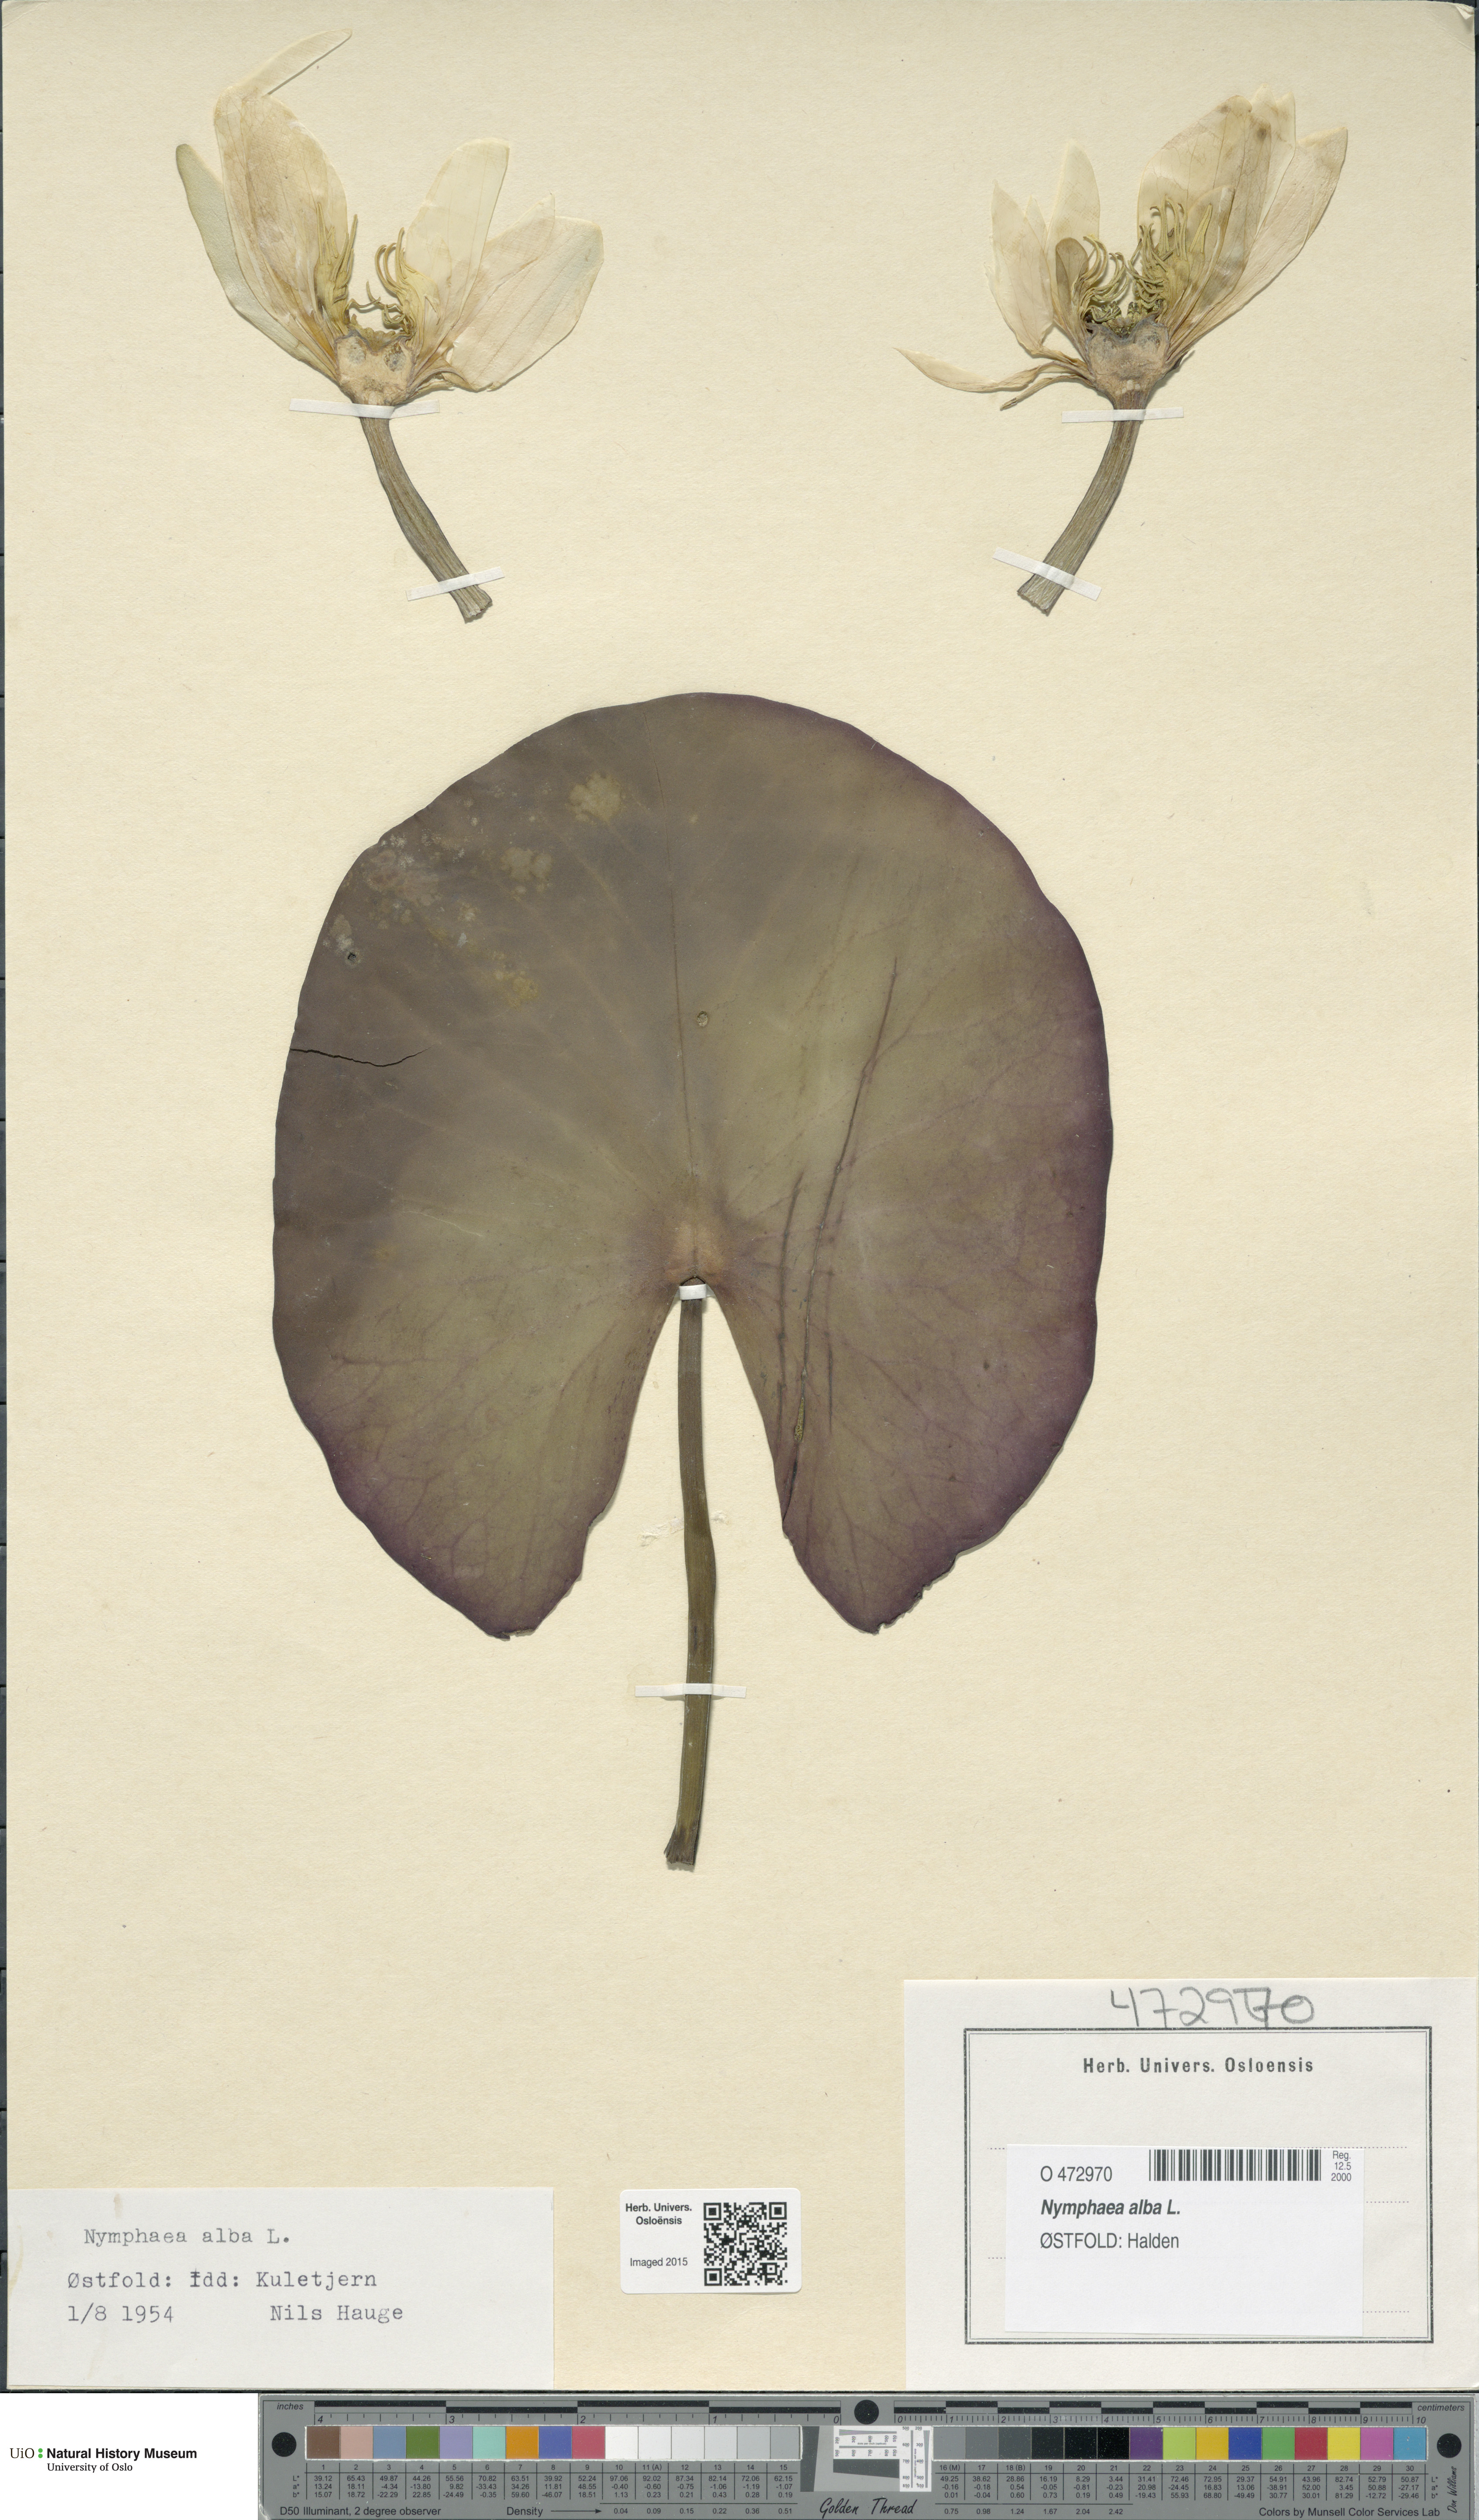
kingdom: Plantae
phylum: Tracheophyta
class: Magnoliopsida
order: Nymphaeales
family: Nymphaeaceae
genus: Nymphaea
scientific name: Nymphaea alba
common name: White water-lily
